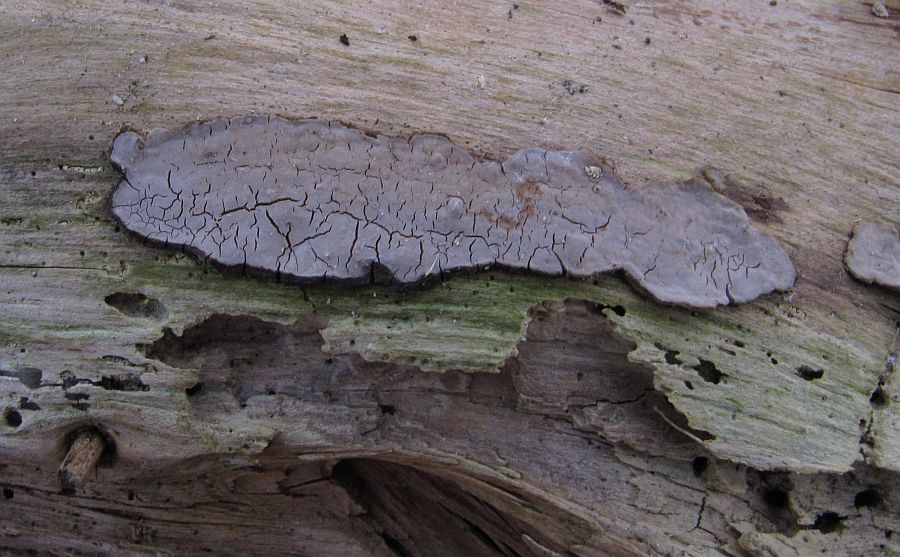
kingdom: Fungi
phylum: Basidiomycota
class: Agaricomycetes
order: Russulales
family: Peniophoraceae
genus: Peniophora
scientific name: Peniophora quercina
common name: ege-voksskind
